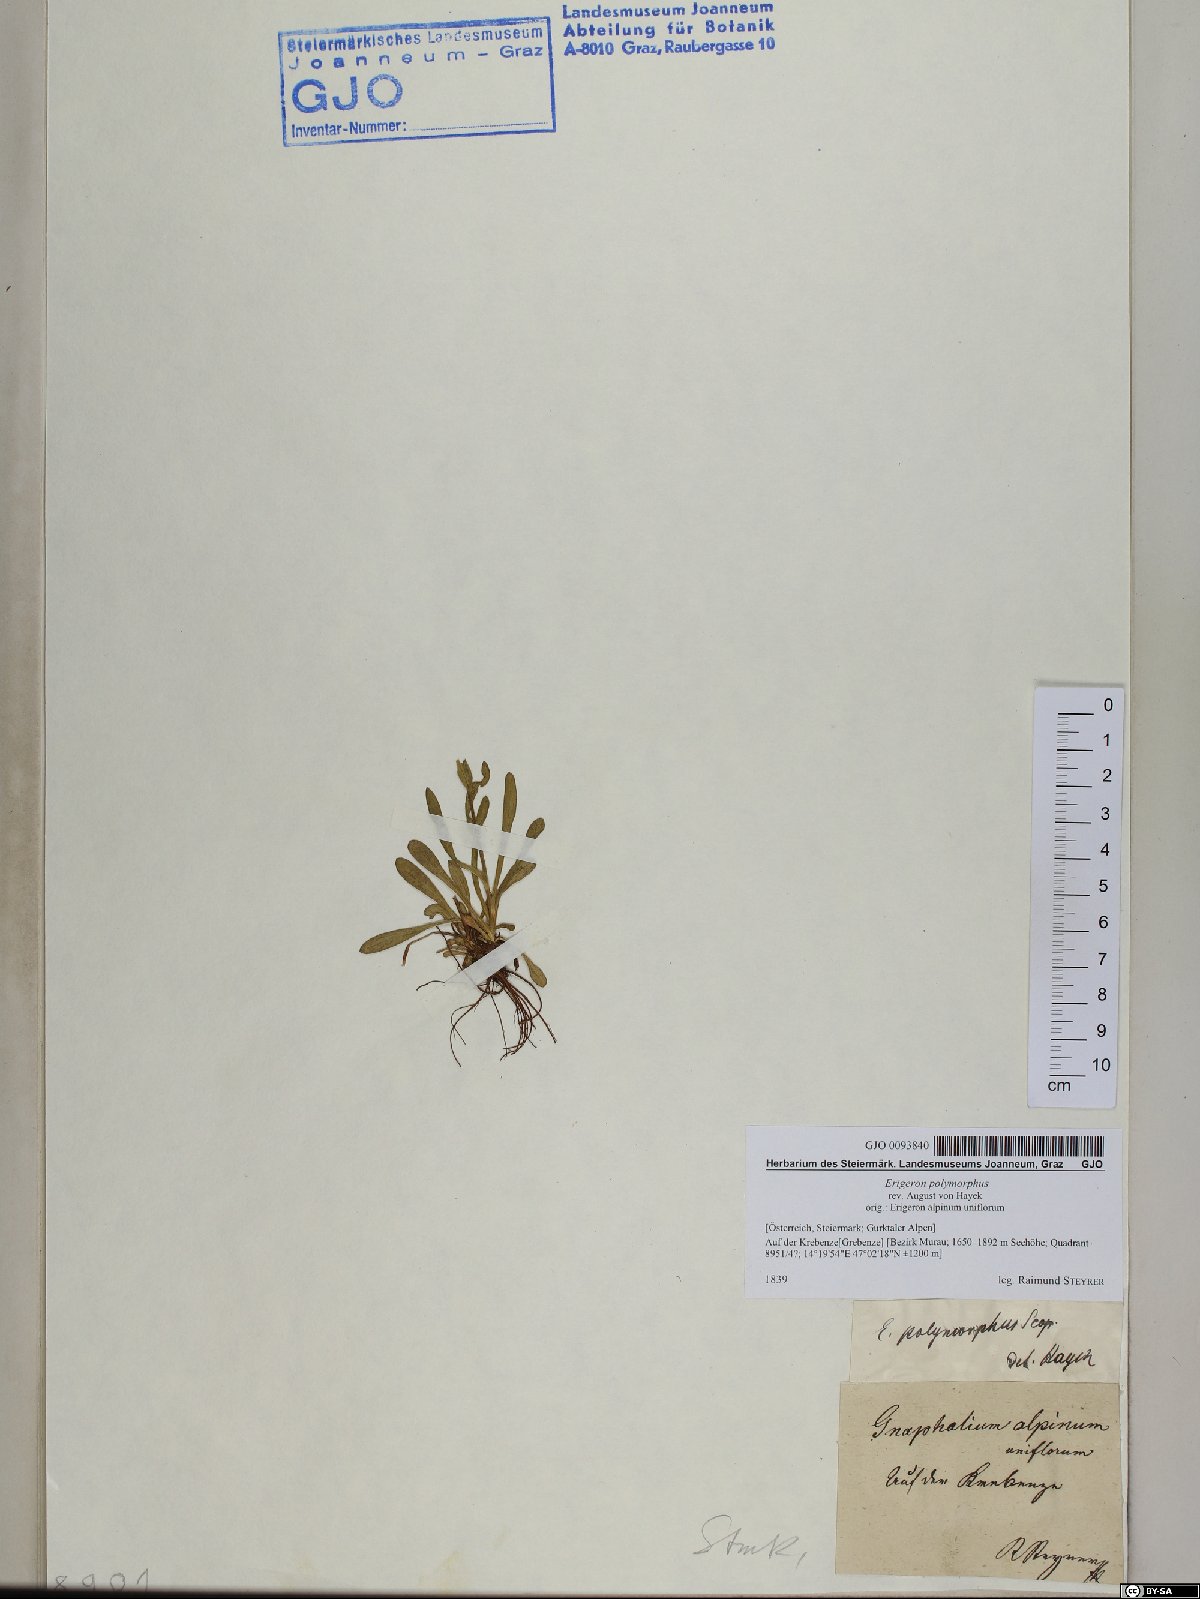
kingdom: Plantae
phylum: Tracheophyta
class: Magnoliopsida
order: Asterales
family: Asteraceae
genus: Erigeron
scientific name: Erigeron alpinus
